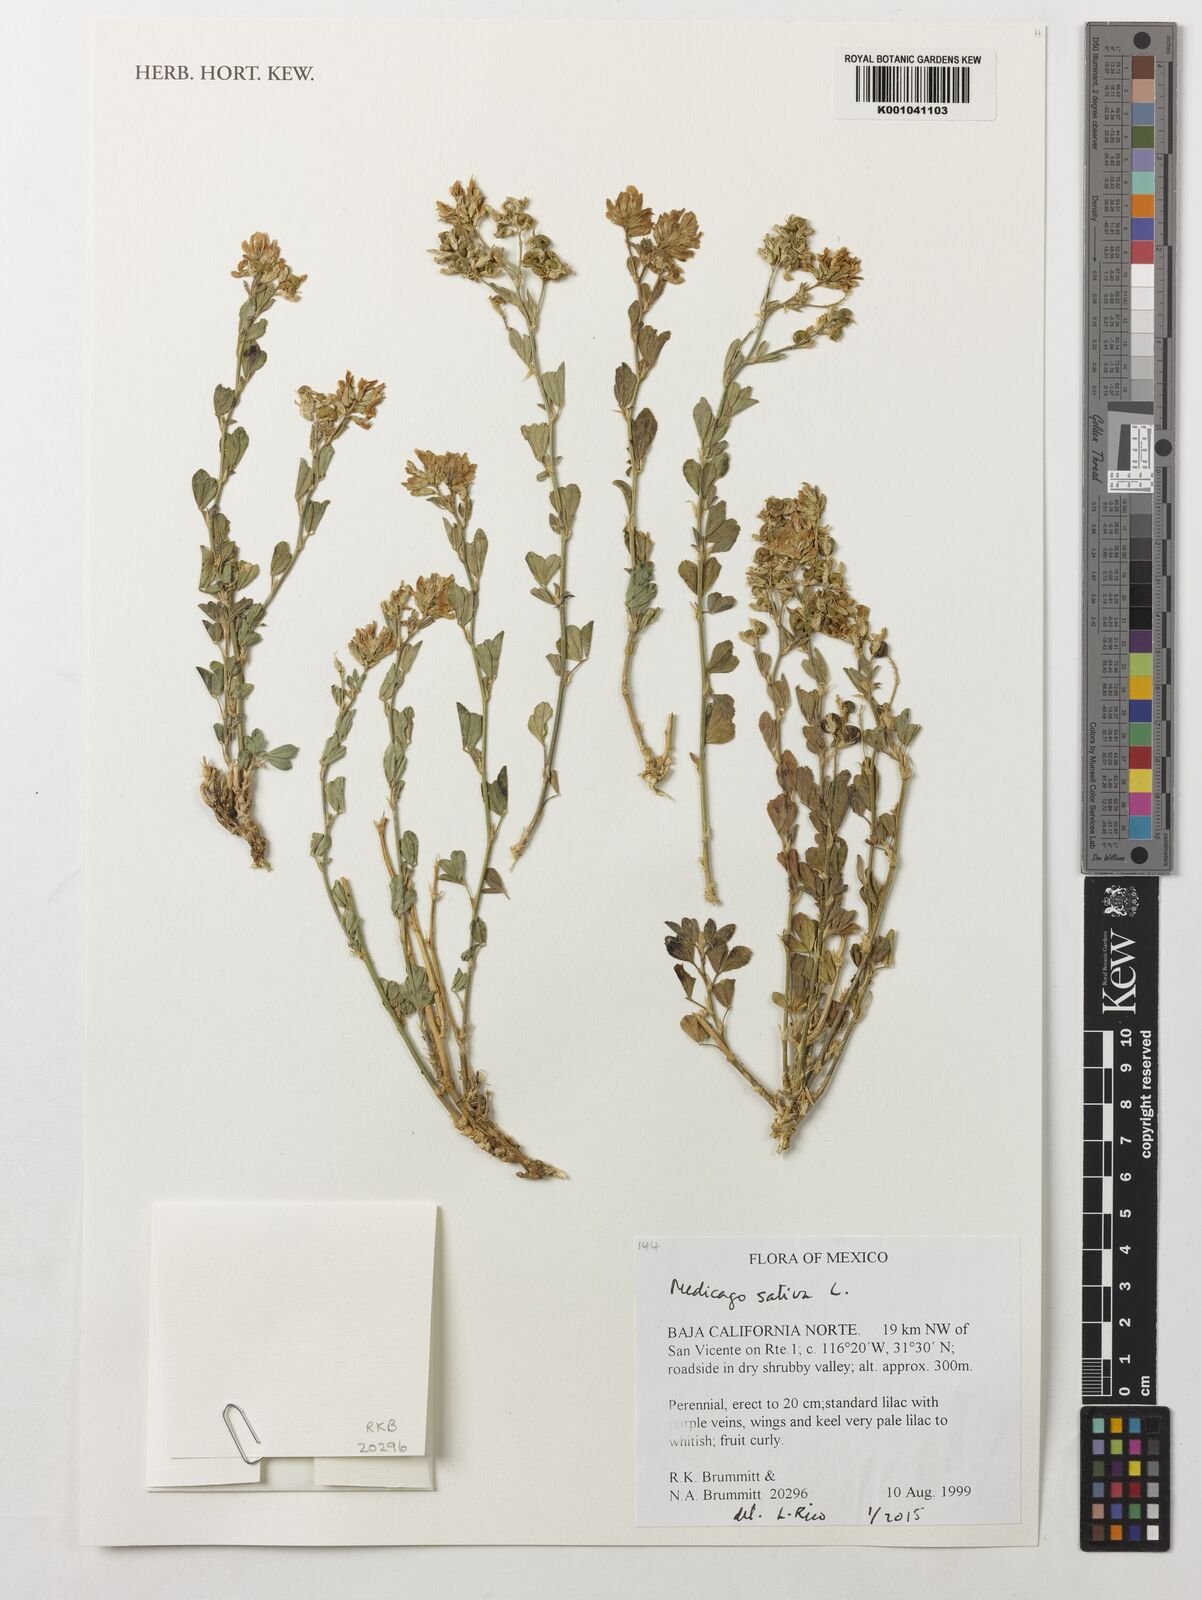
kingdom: Plantae
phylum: Tracheophyta
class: Magnoliopsida
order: Fabales
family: Fabaceae
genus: Medicago
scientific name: Medicago sativa
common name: Alfalfa
